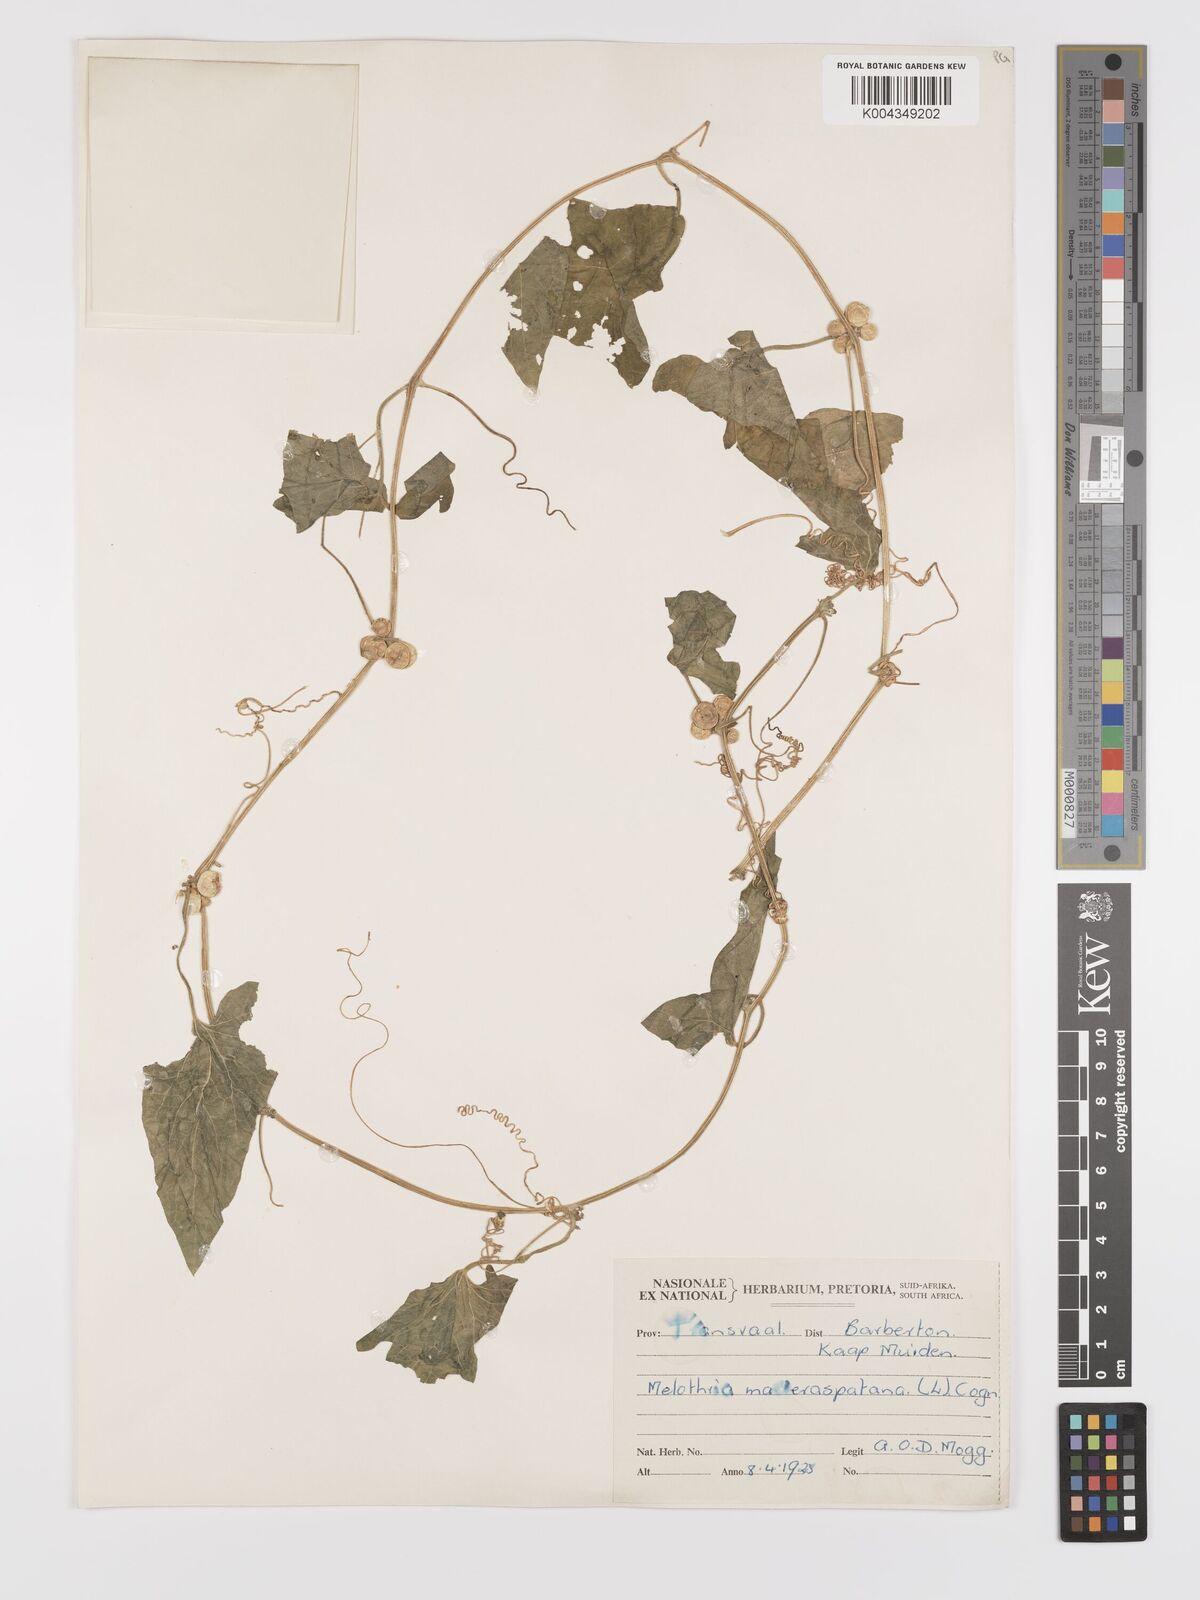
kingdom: Plantae
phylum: Tracheophyta
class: Magnoliopsida
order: Cucurbitales
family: Cucurbitaceae
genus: Cucumis
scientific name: Cucumis maderaspatanus
